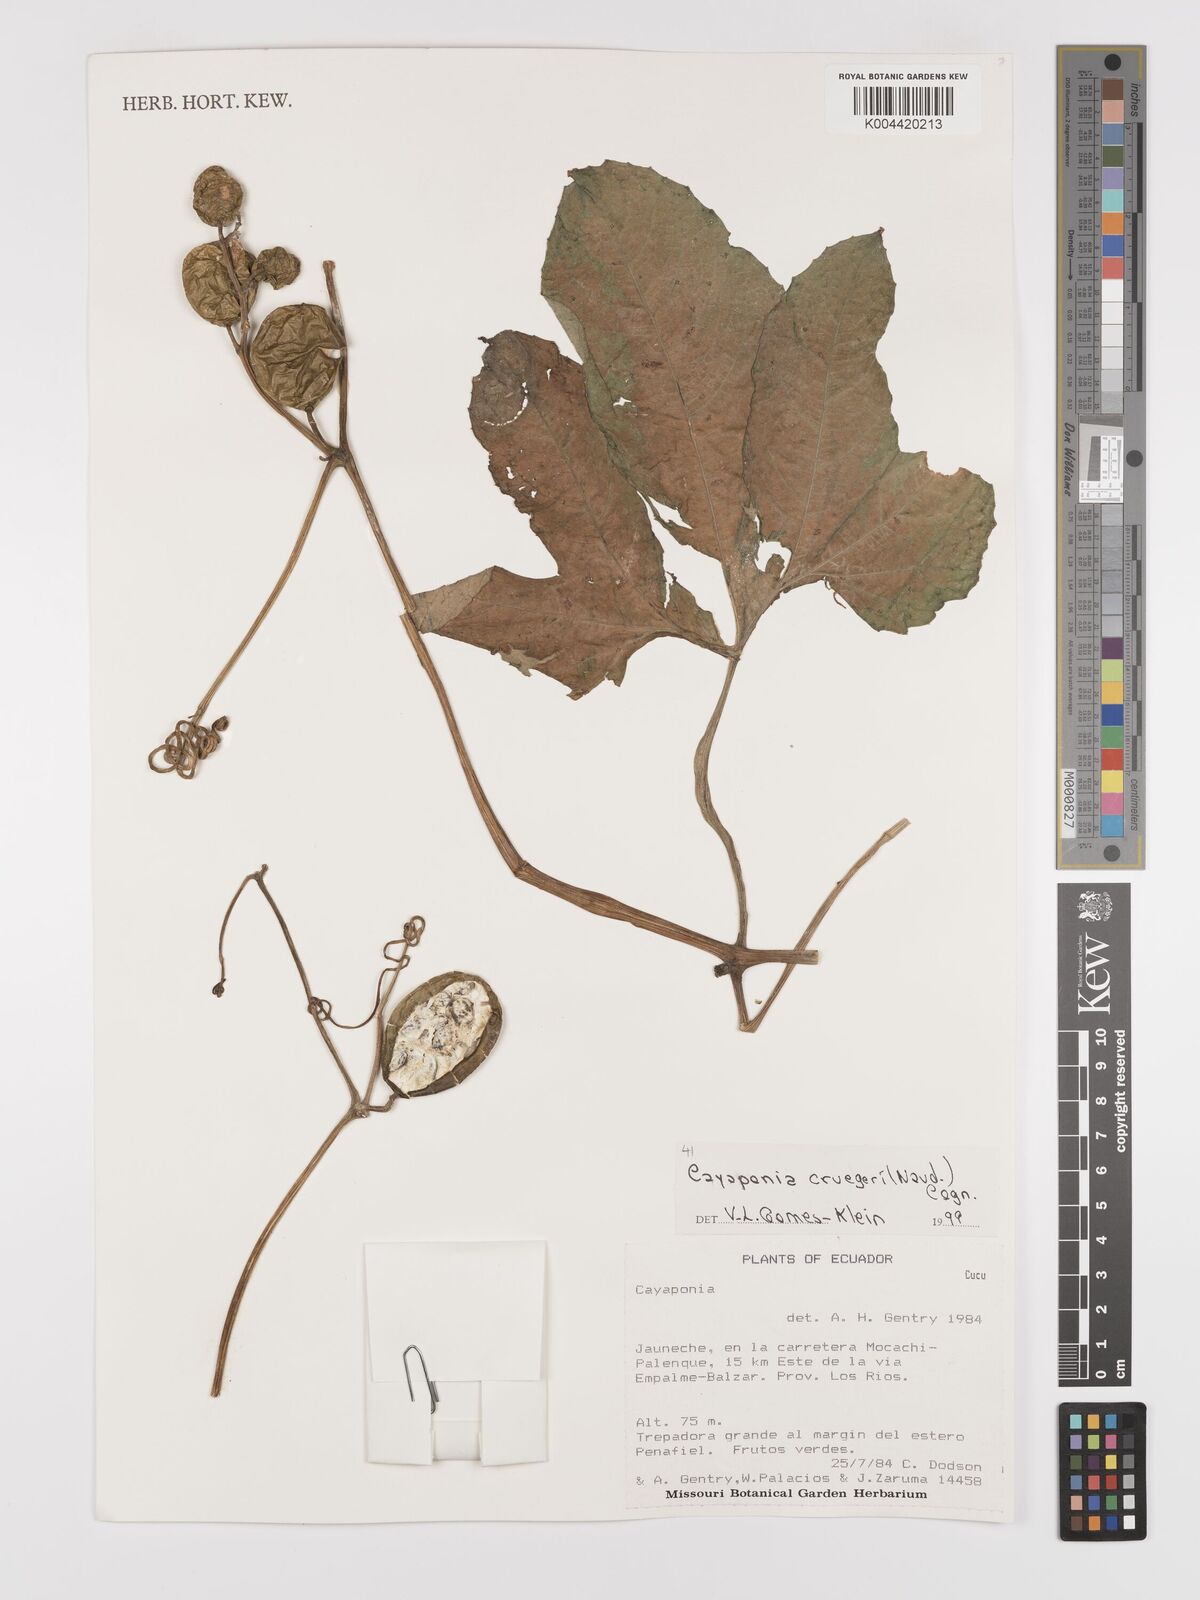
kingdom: Plantae
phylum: Tracheophyta
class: Magnoliopsida
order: Cucurbitales
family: Cucurbitaceae
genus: Cayaponia
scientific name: Cayaponia cruegeri
